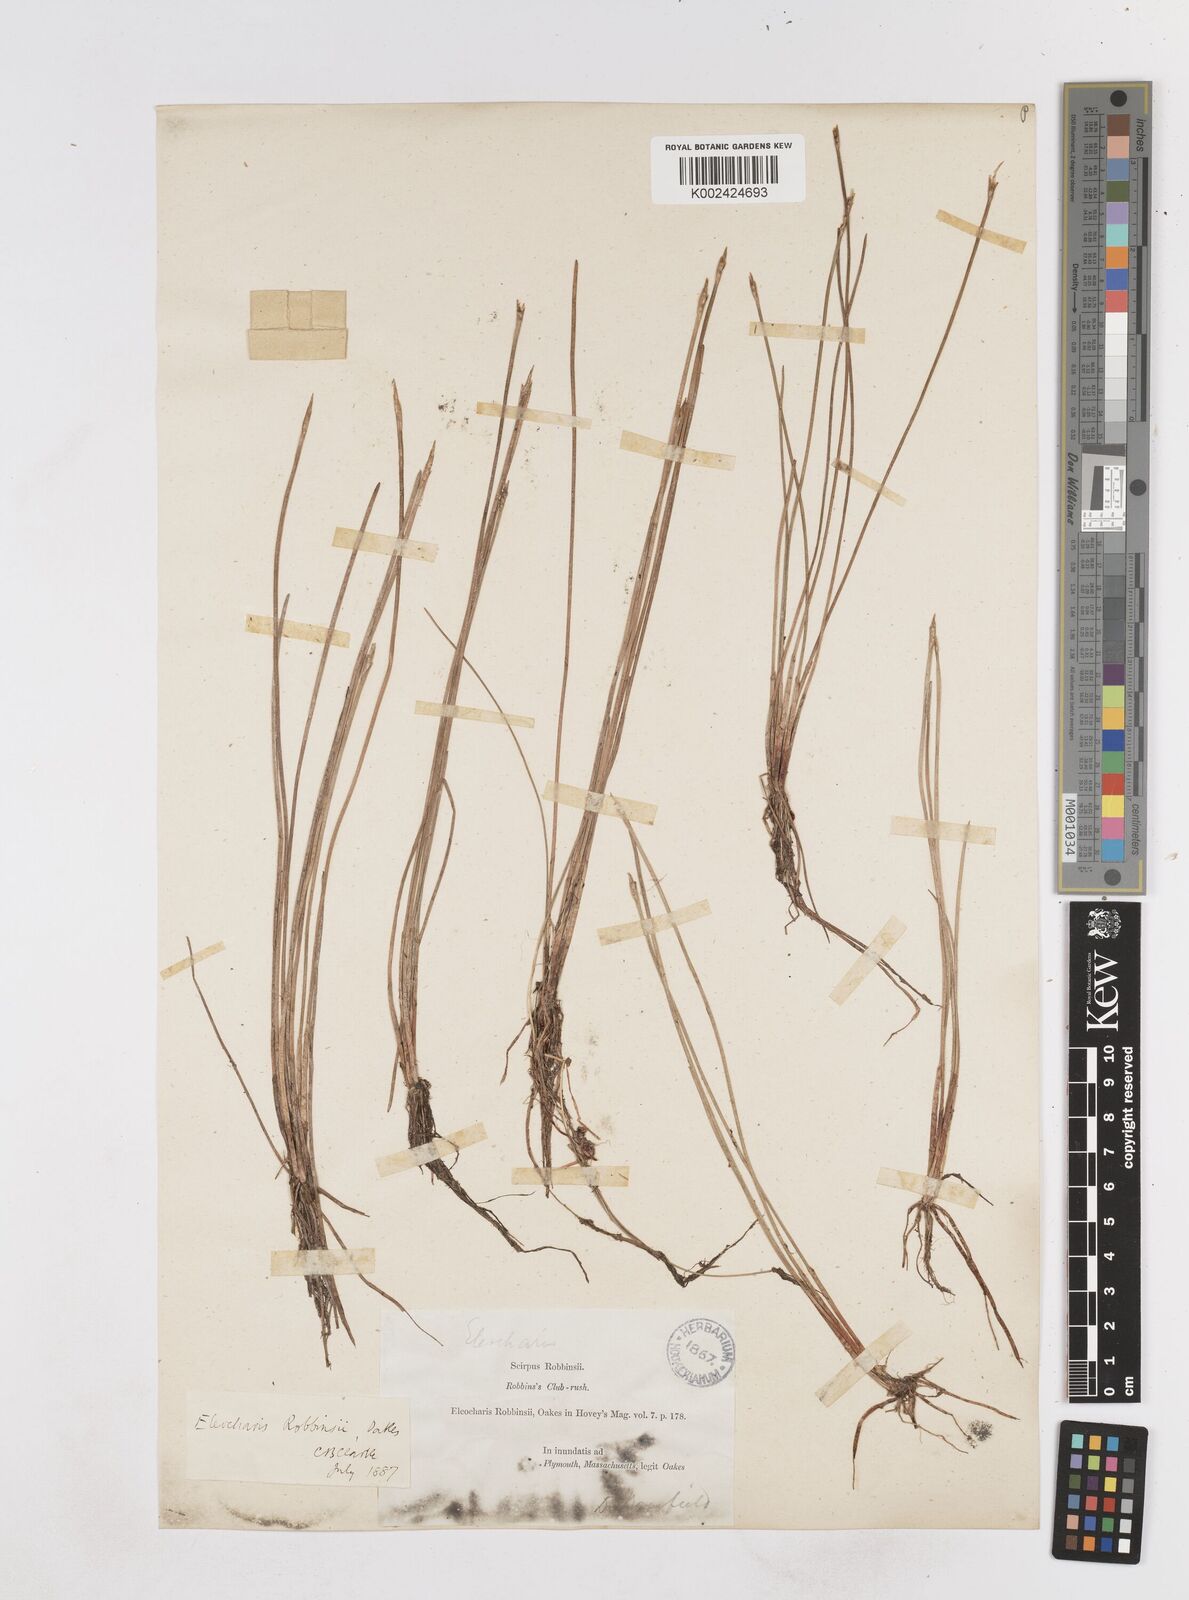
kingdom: Plantae
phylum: Tracheophyta
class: Liliopsida
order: Poales
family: Cyperaceae
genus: Eleocharis
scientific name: Eleocharis robbinsii
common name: Robbins' spikerush
